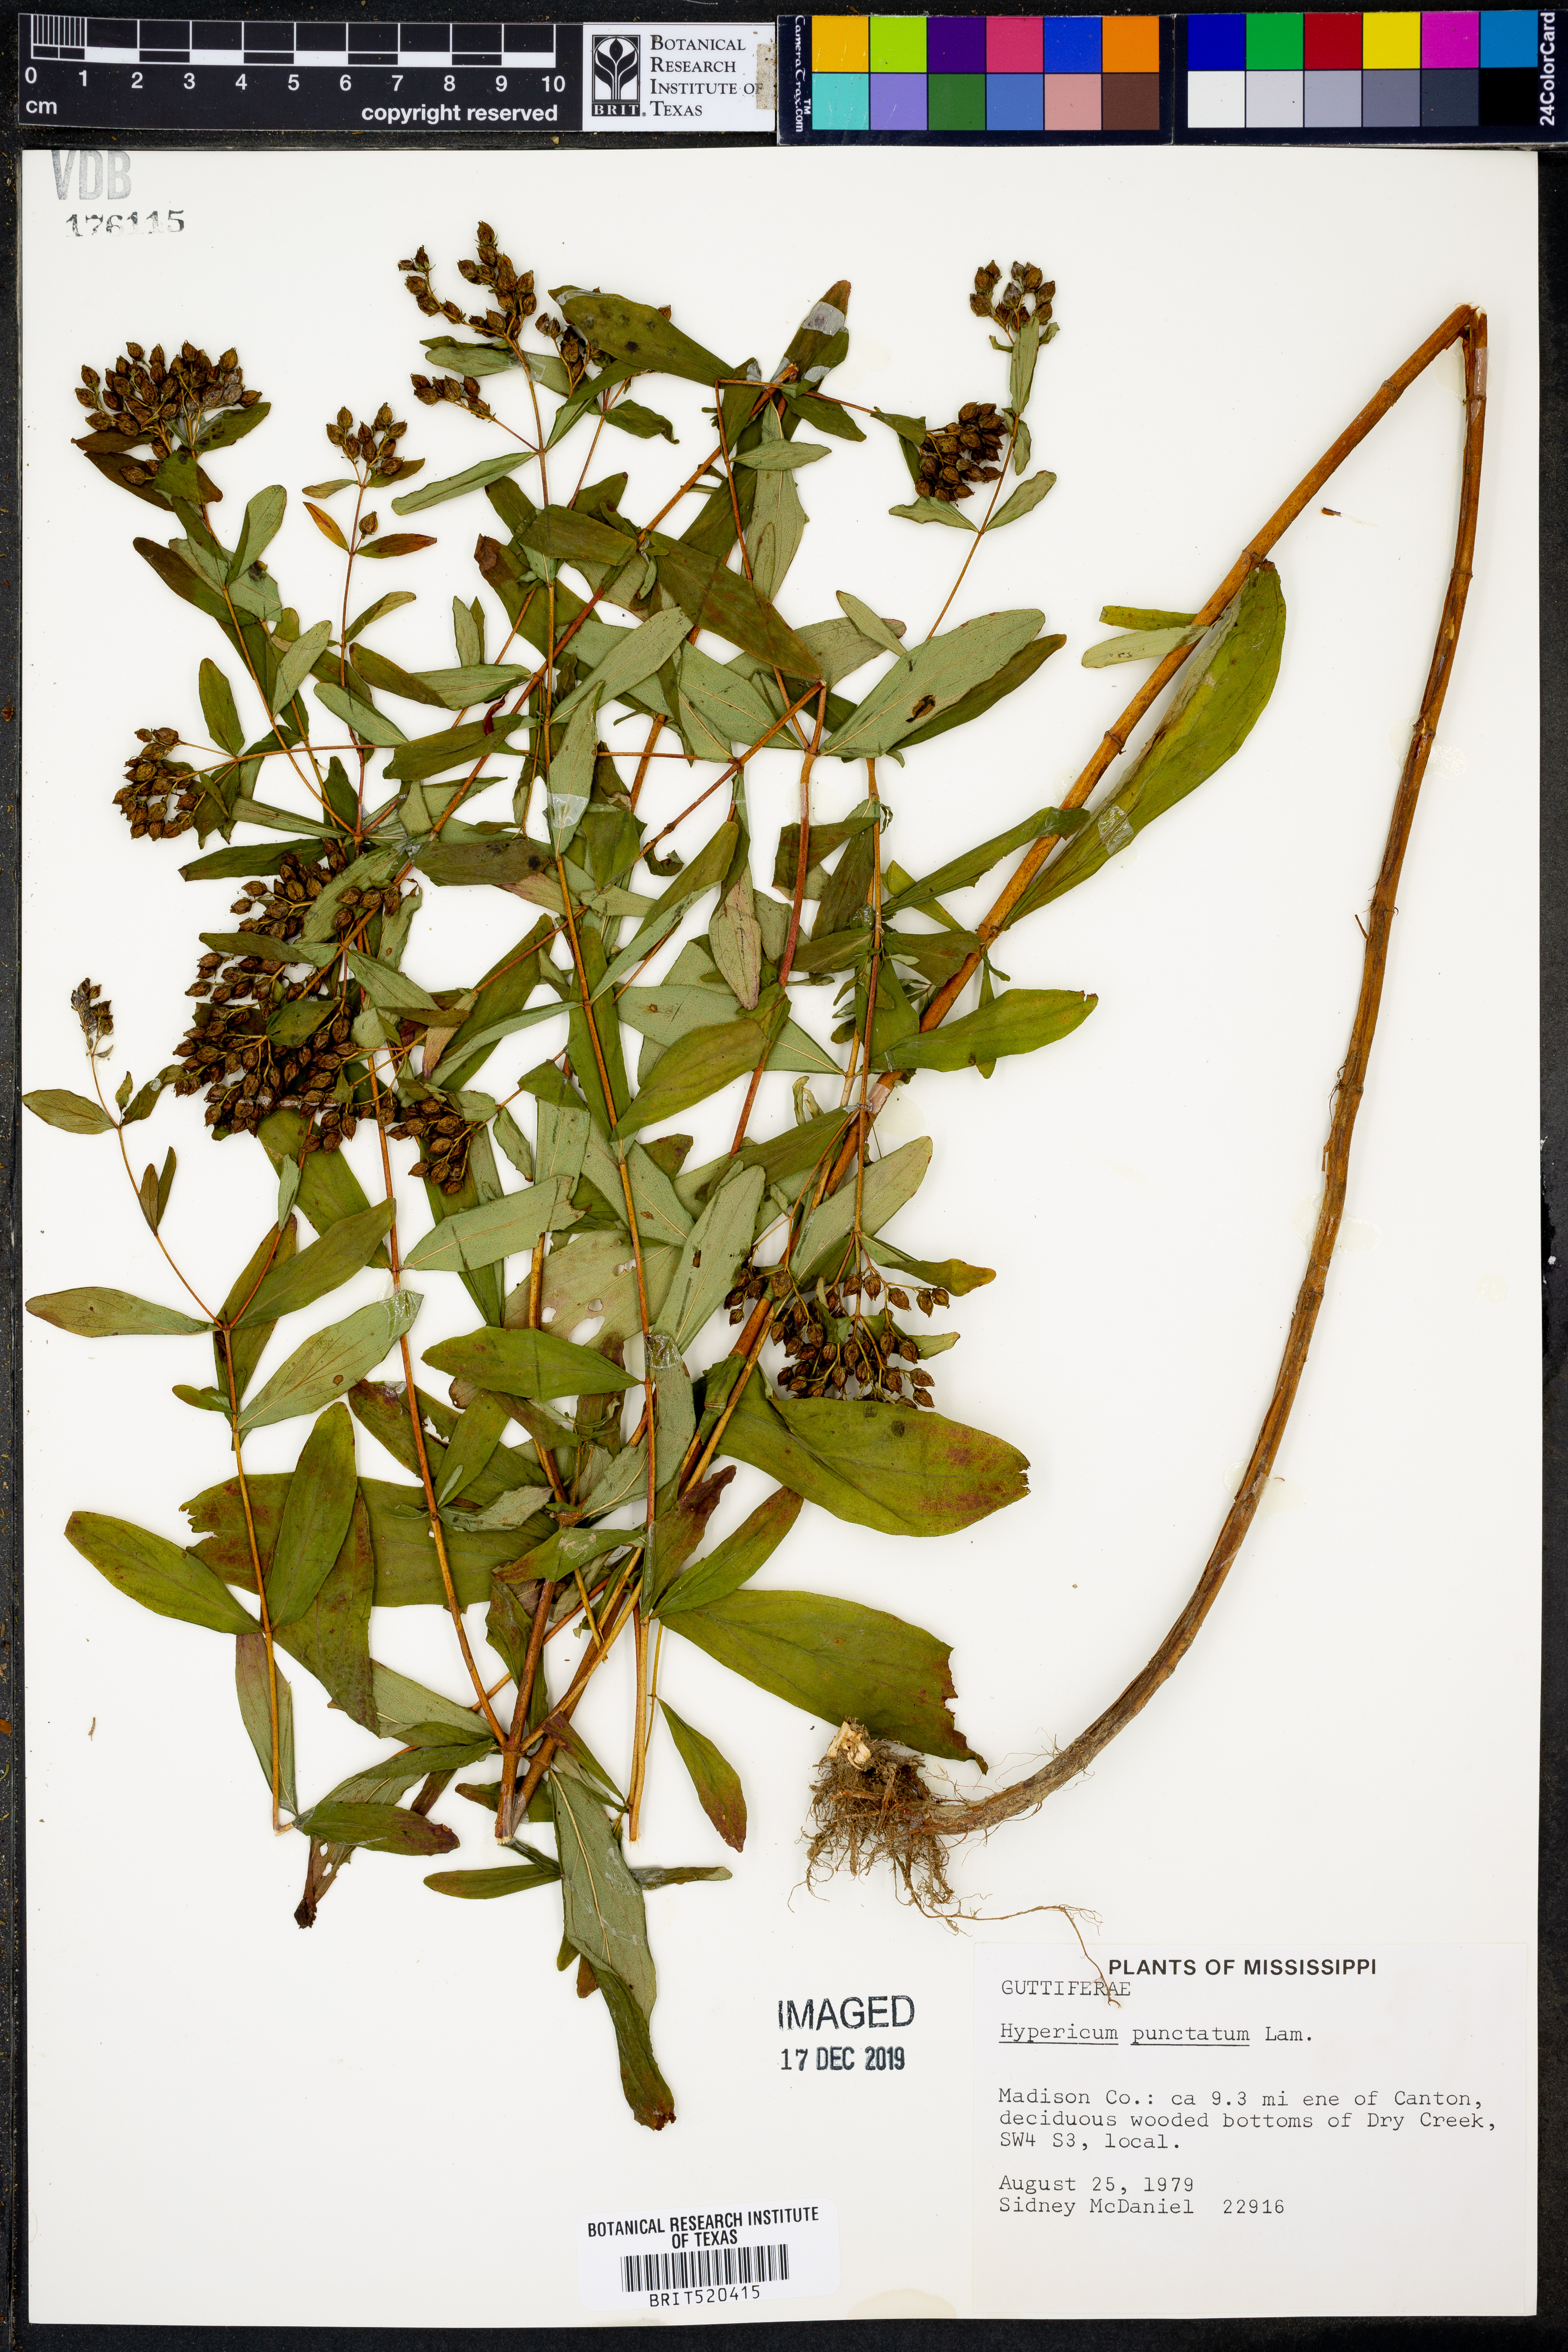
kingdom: Plantae
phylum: Tracheophyta
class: Magnoliopsida
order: Malpighiales
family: Hypericaceae
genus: Hypericum
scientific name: Hypericum punctatum
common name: Spotted st. john's-wort
